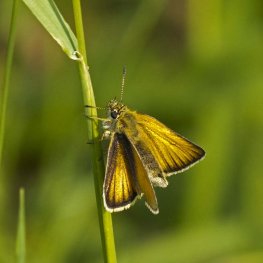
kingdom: Animalia
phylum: Arthropoda
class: Insecta
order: Lepidoptera
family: Hesperiidae
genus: Thymelicus
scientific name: Thymelicus lineola
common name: European Skipper
